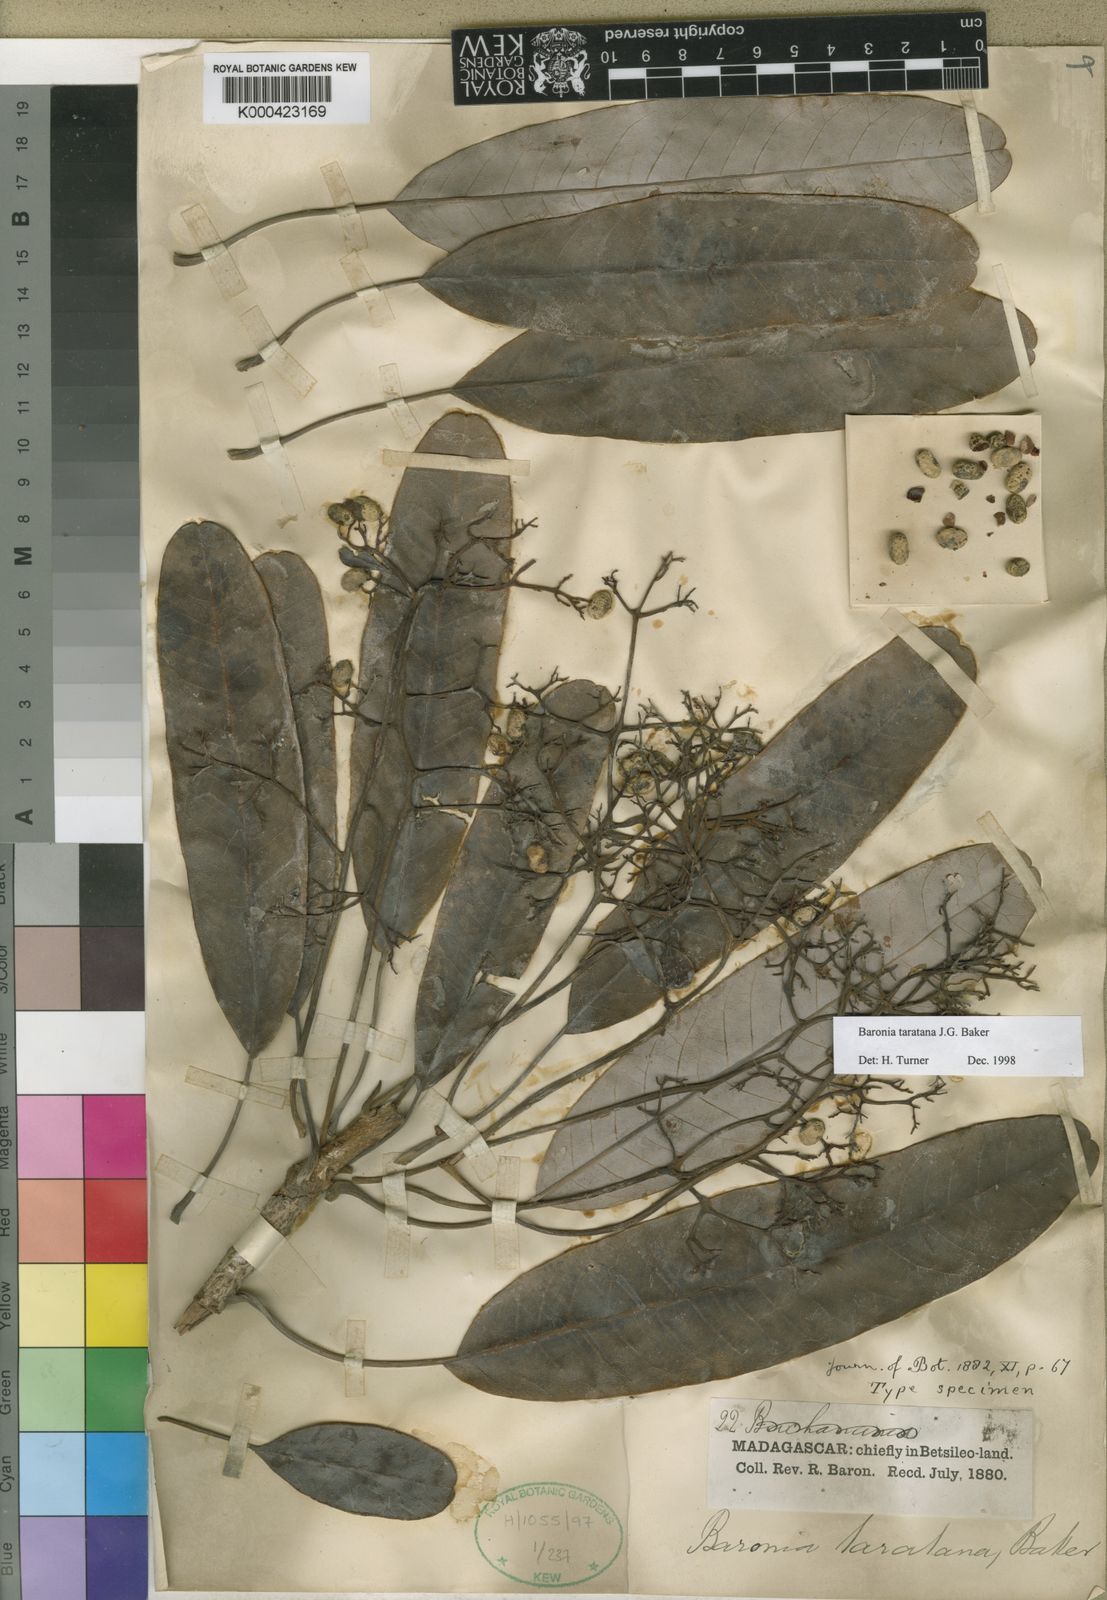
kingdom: Plantae
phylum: Tracheophyta
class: Magnoliopsida
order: Sapindales
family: Anacardiaceae
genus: Baronia
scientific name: Baronia taratana
